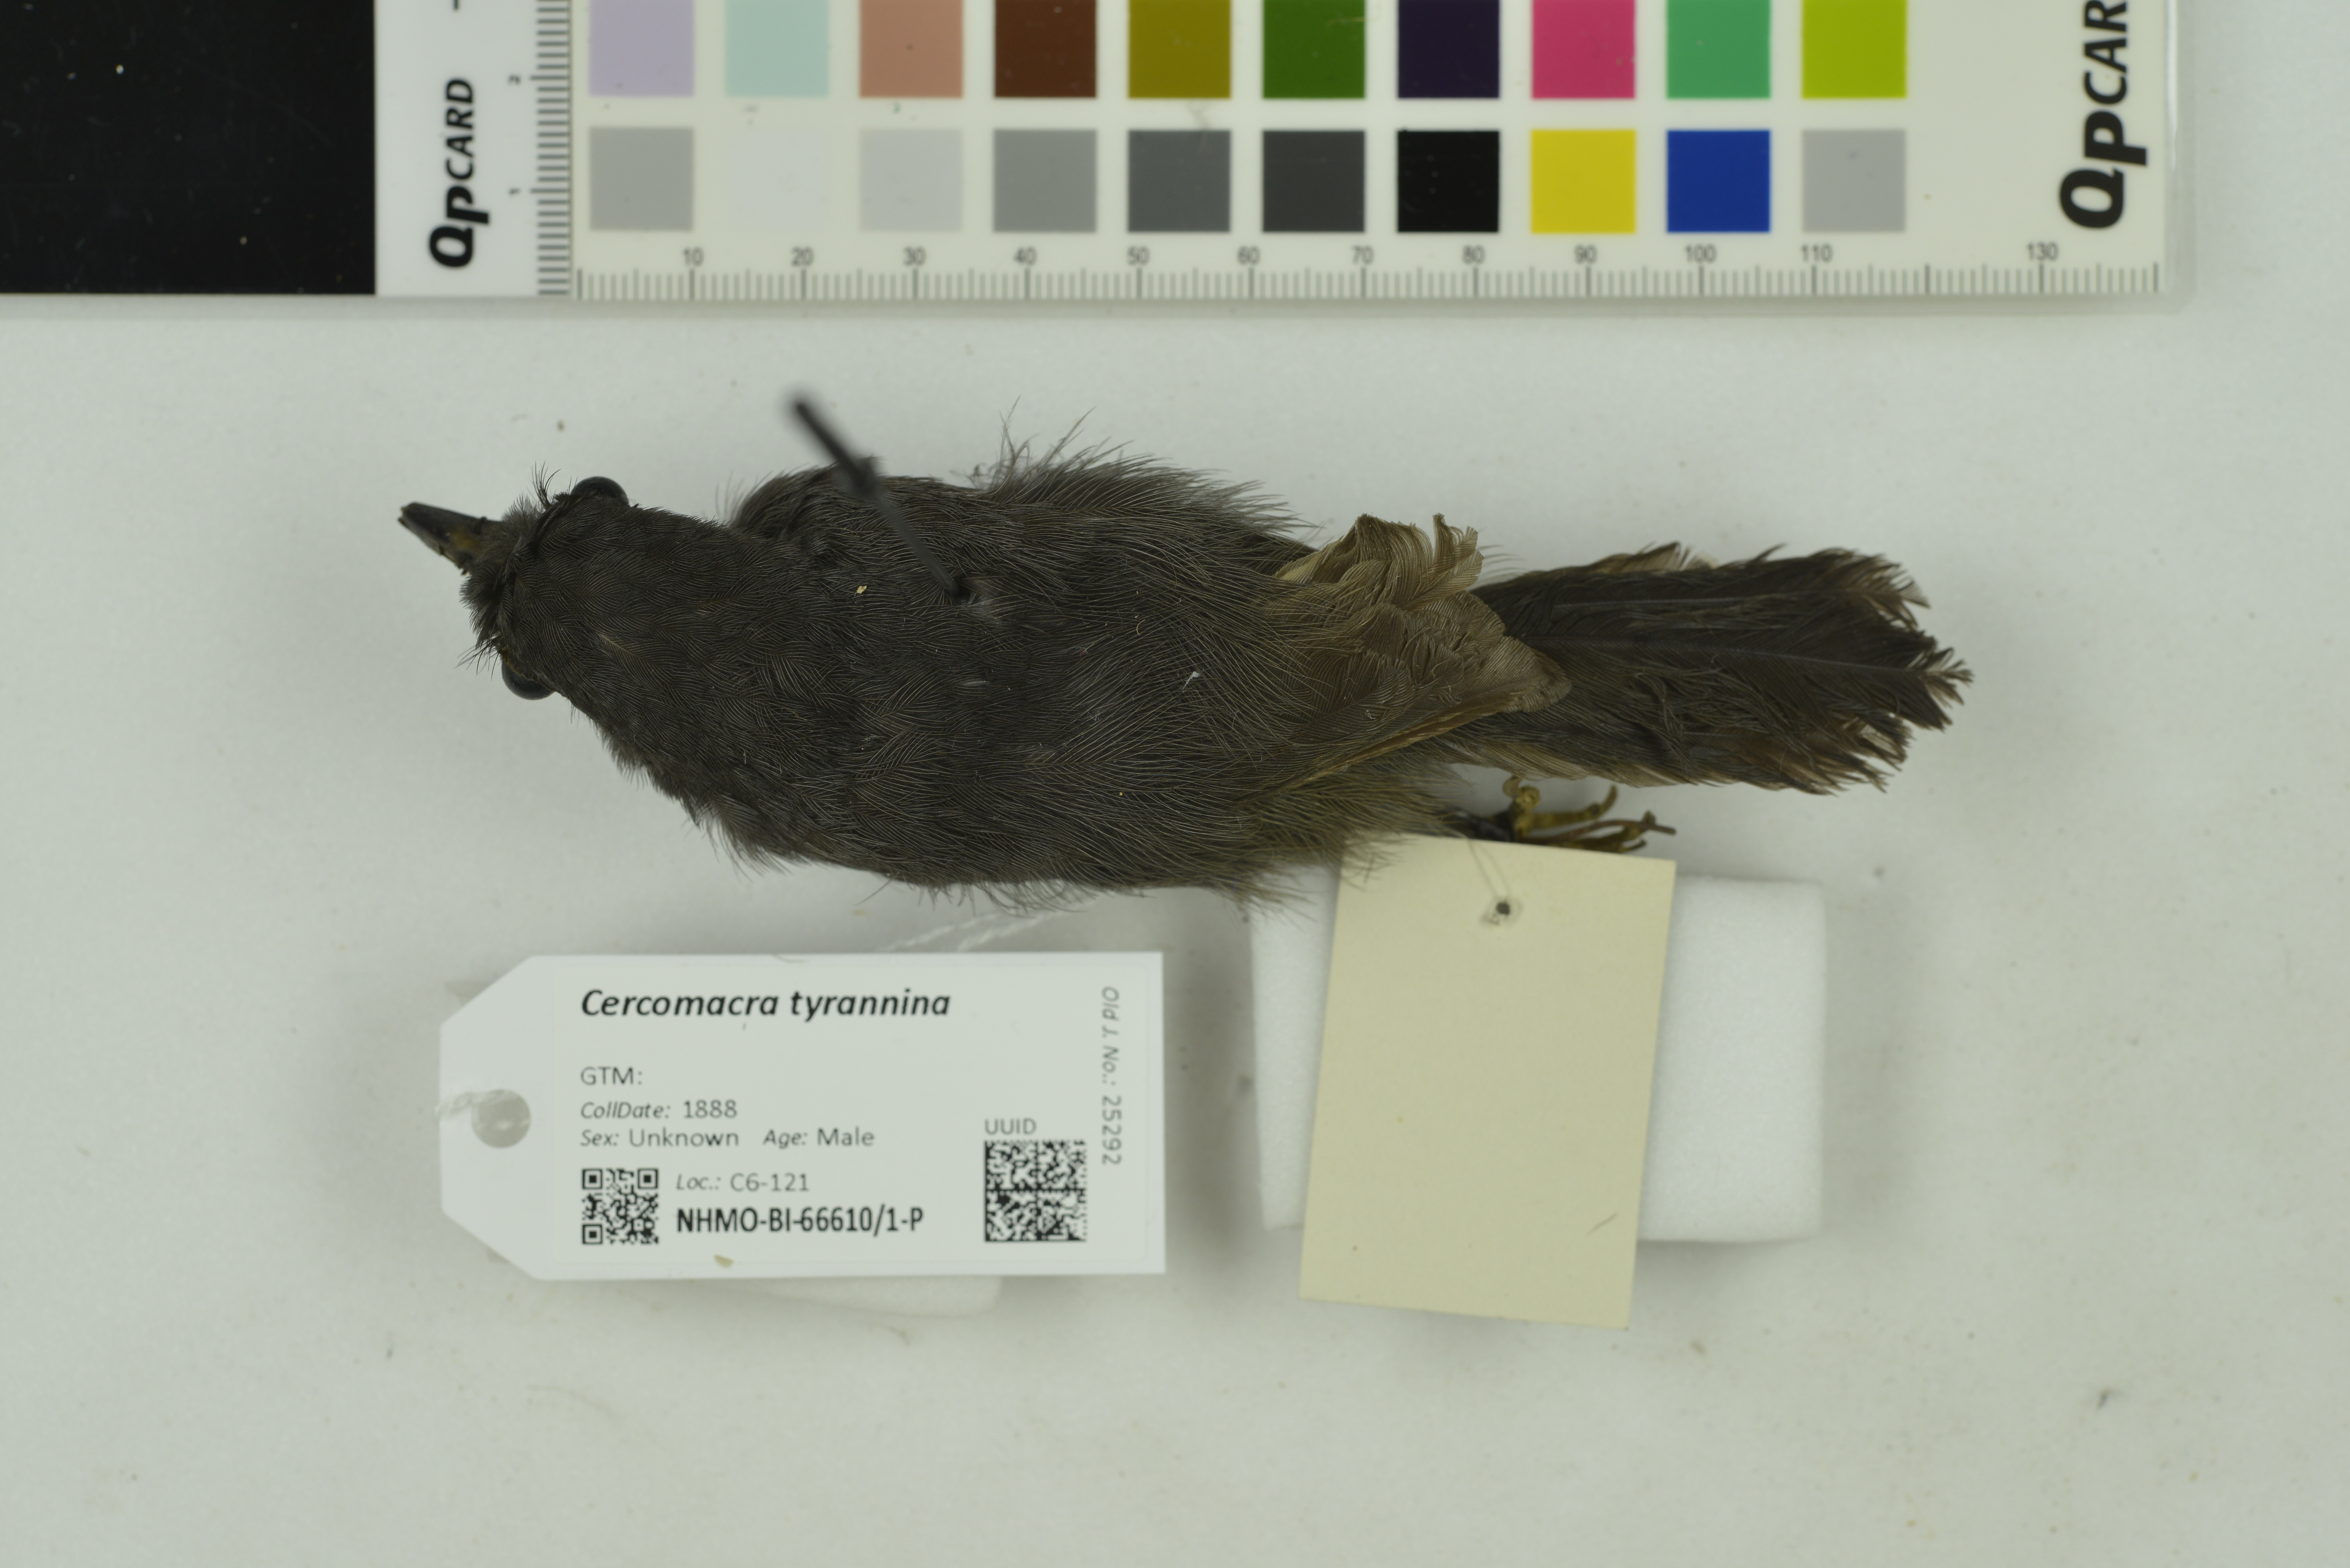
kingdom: Animalia
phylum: Chordata
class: Aves
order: Passeriformes
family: Thamnophilidae
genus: Cercomacra
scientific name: Cercomacra tyrannina
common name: Dusky antbird
